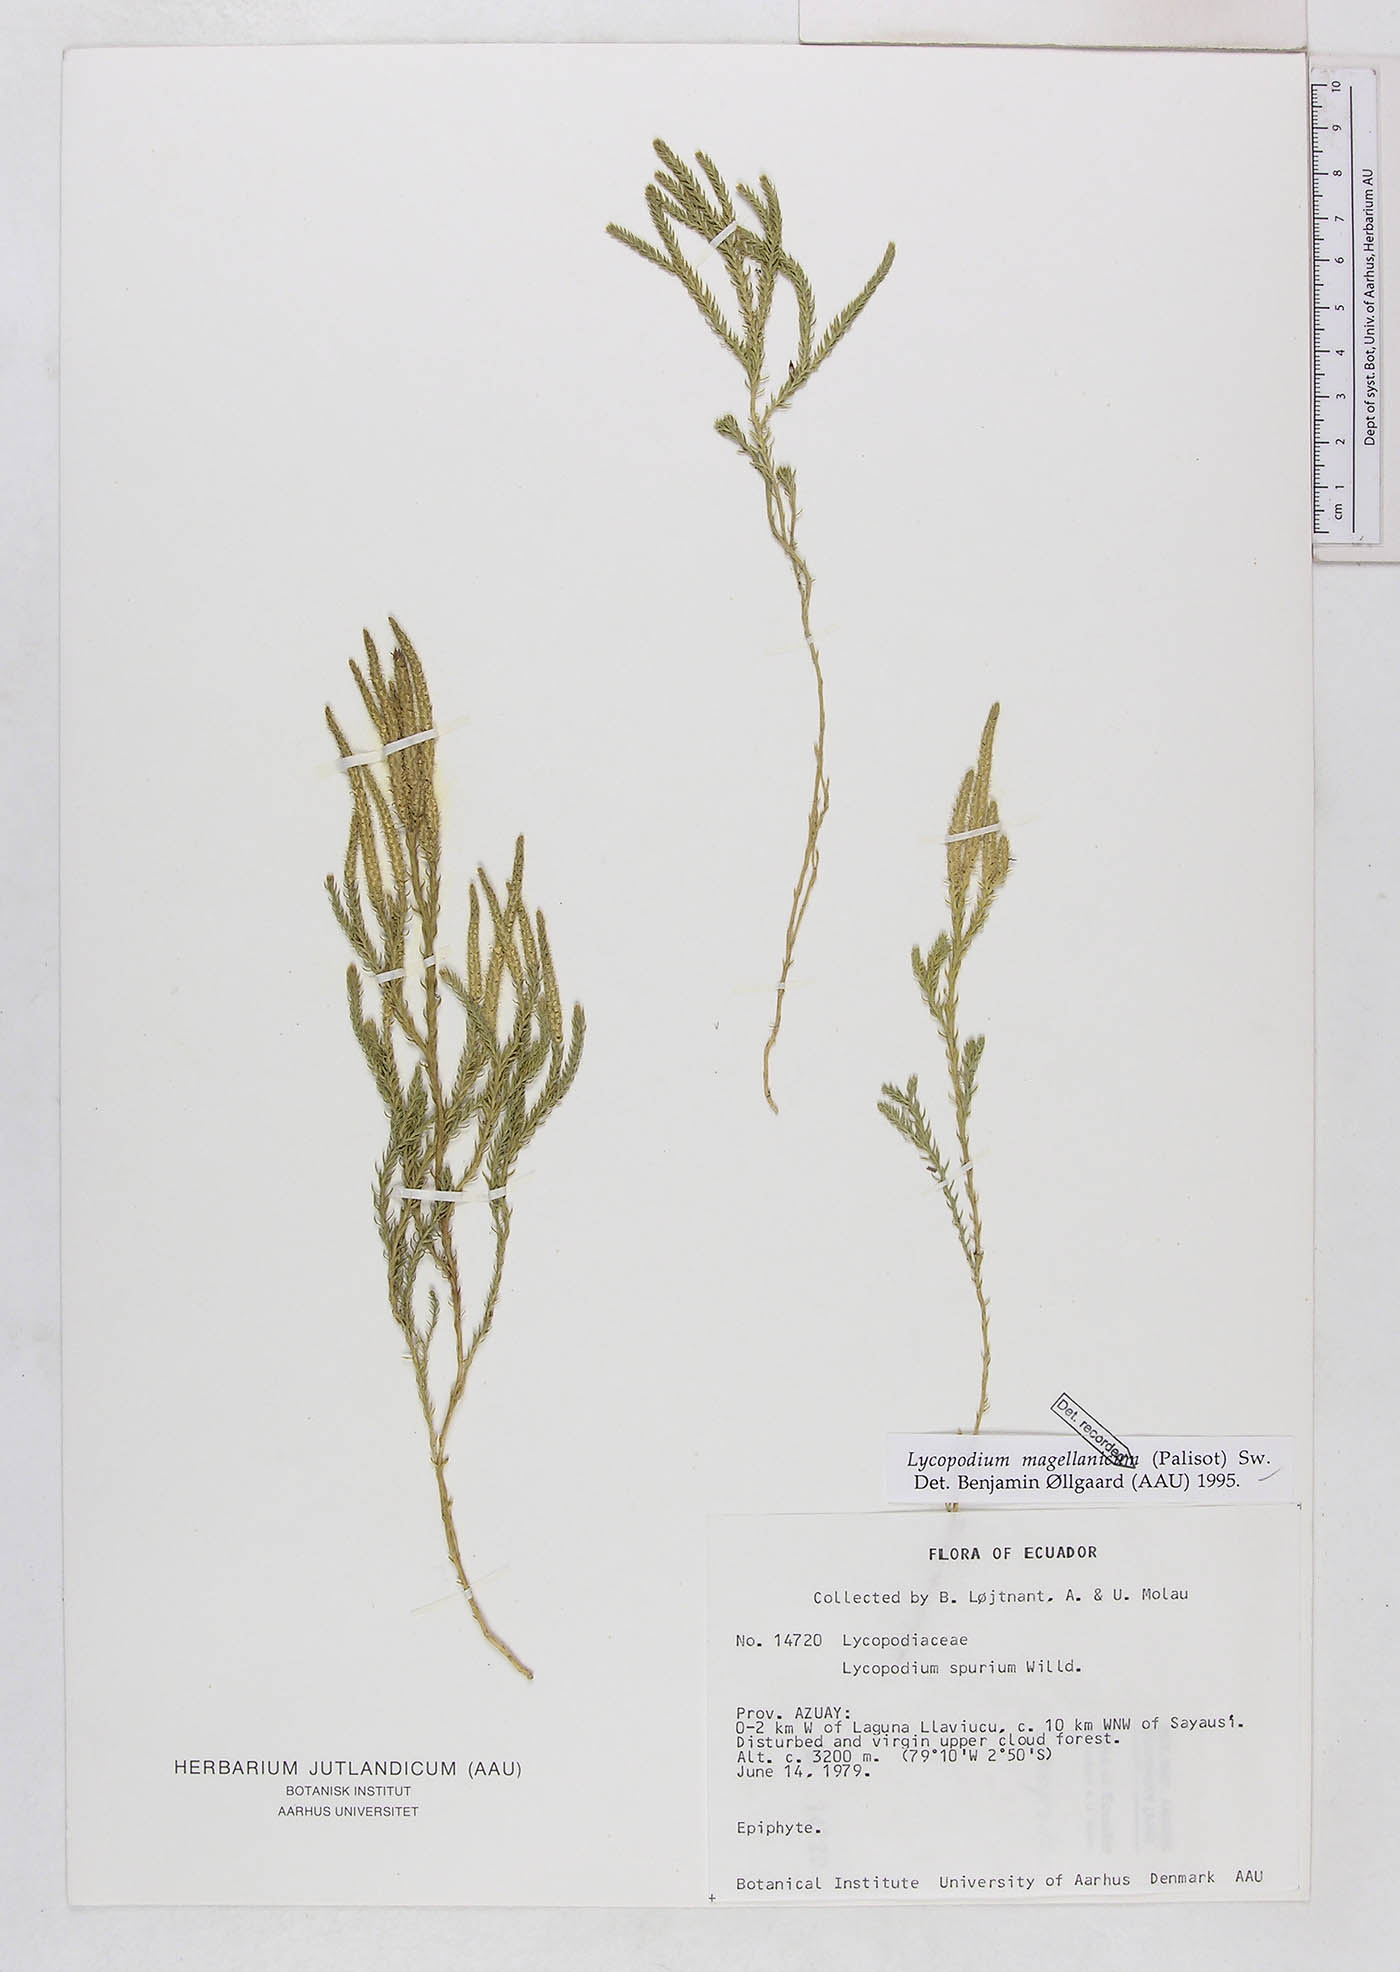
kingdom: Plantae
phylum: Tracheophyta
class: Lycopodiopsida
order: Lycopodiales
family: Lycopodiaceae
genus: Austrolycopodium
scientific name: Austrolycopodium magellanicum
